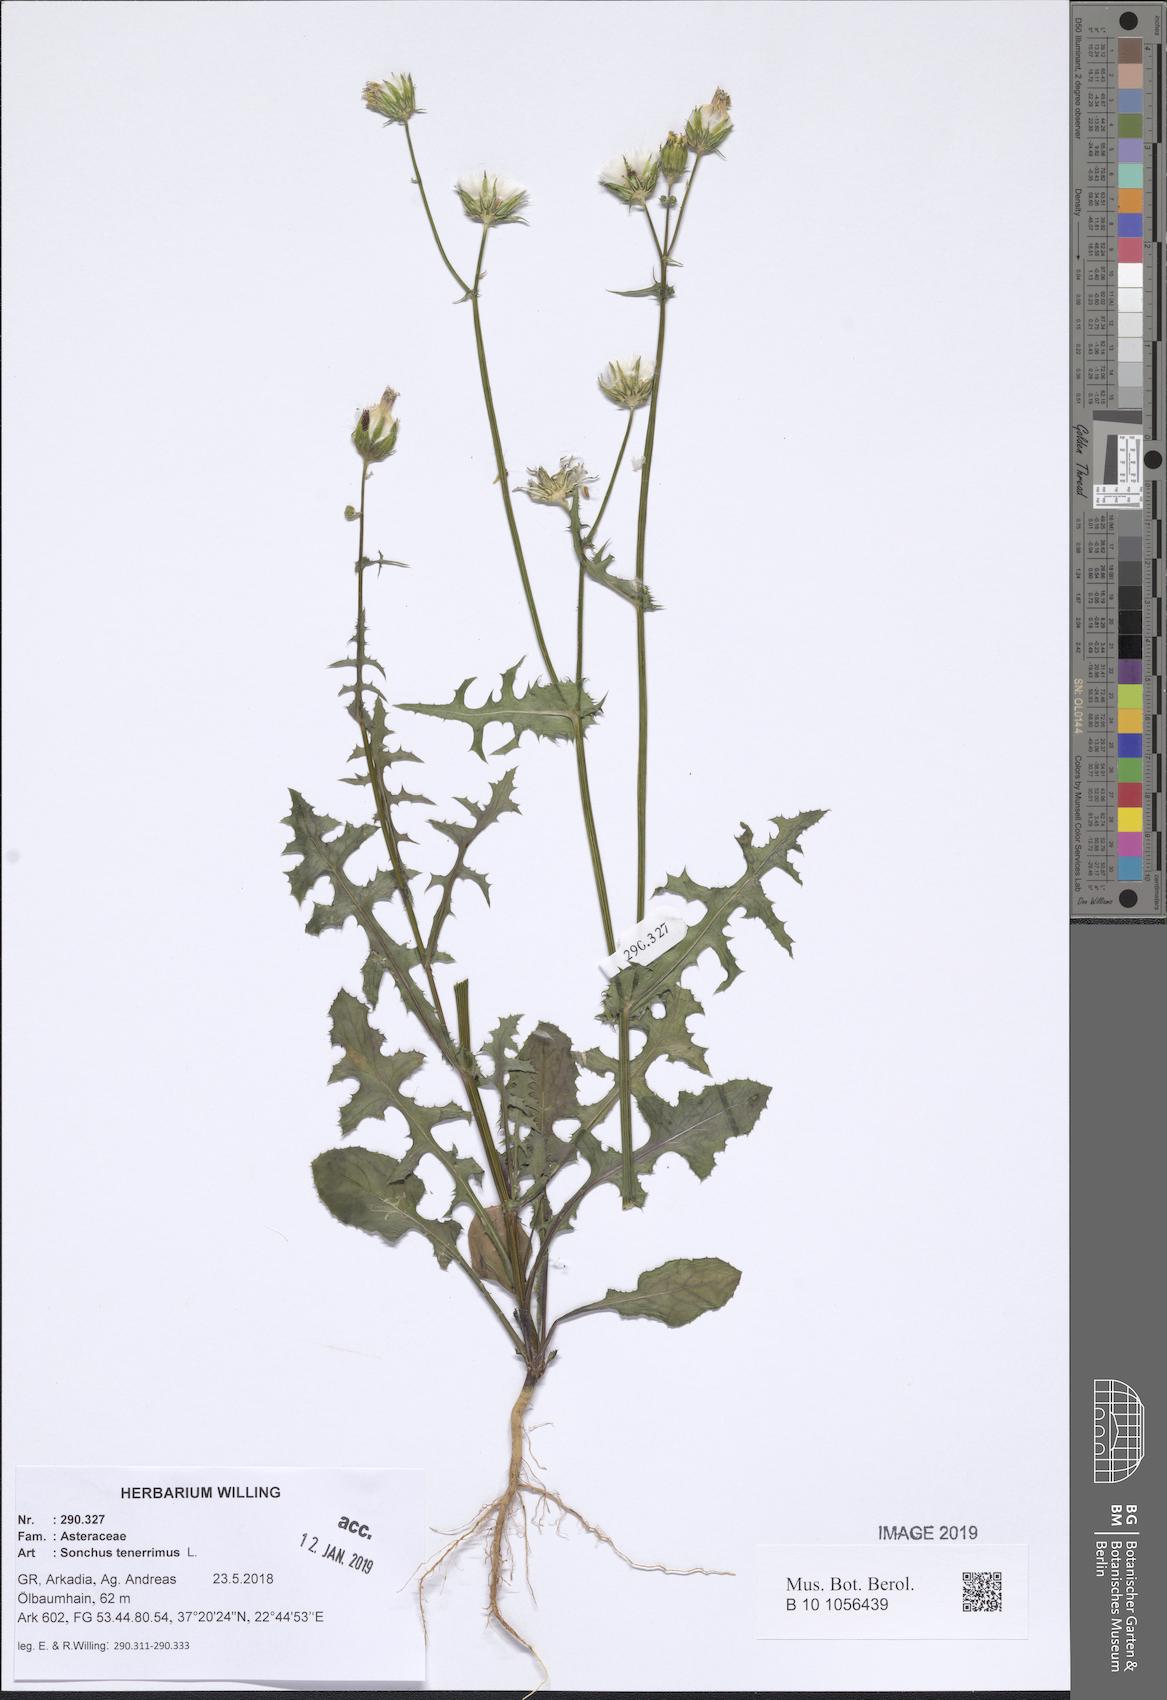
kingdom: Plantae
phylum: Tracheophyta
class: Magnoliopsida
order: Asterales
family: Asteraceae
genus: Sonchus
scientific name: Sonchus tenerrimus
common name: Clammy sowthistle
